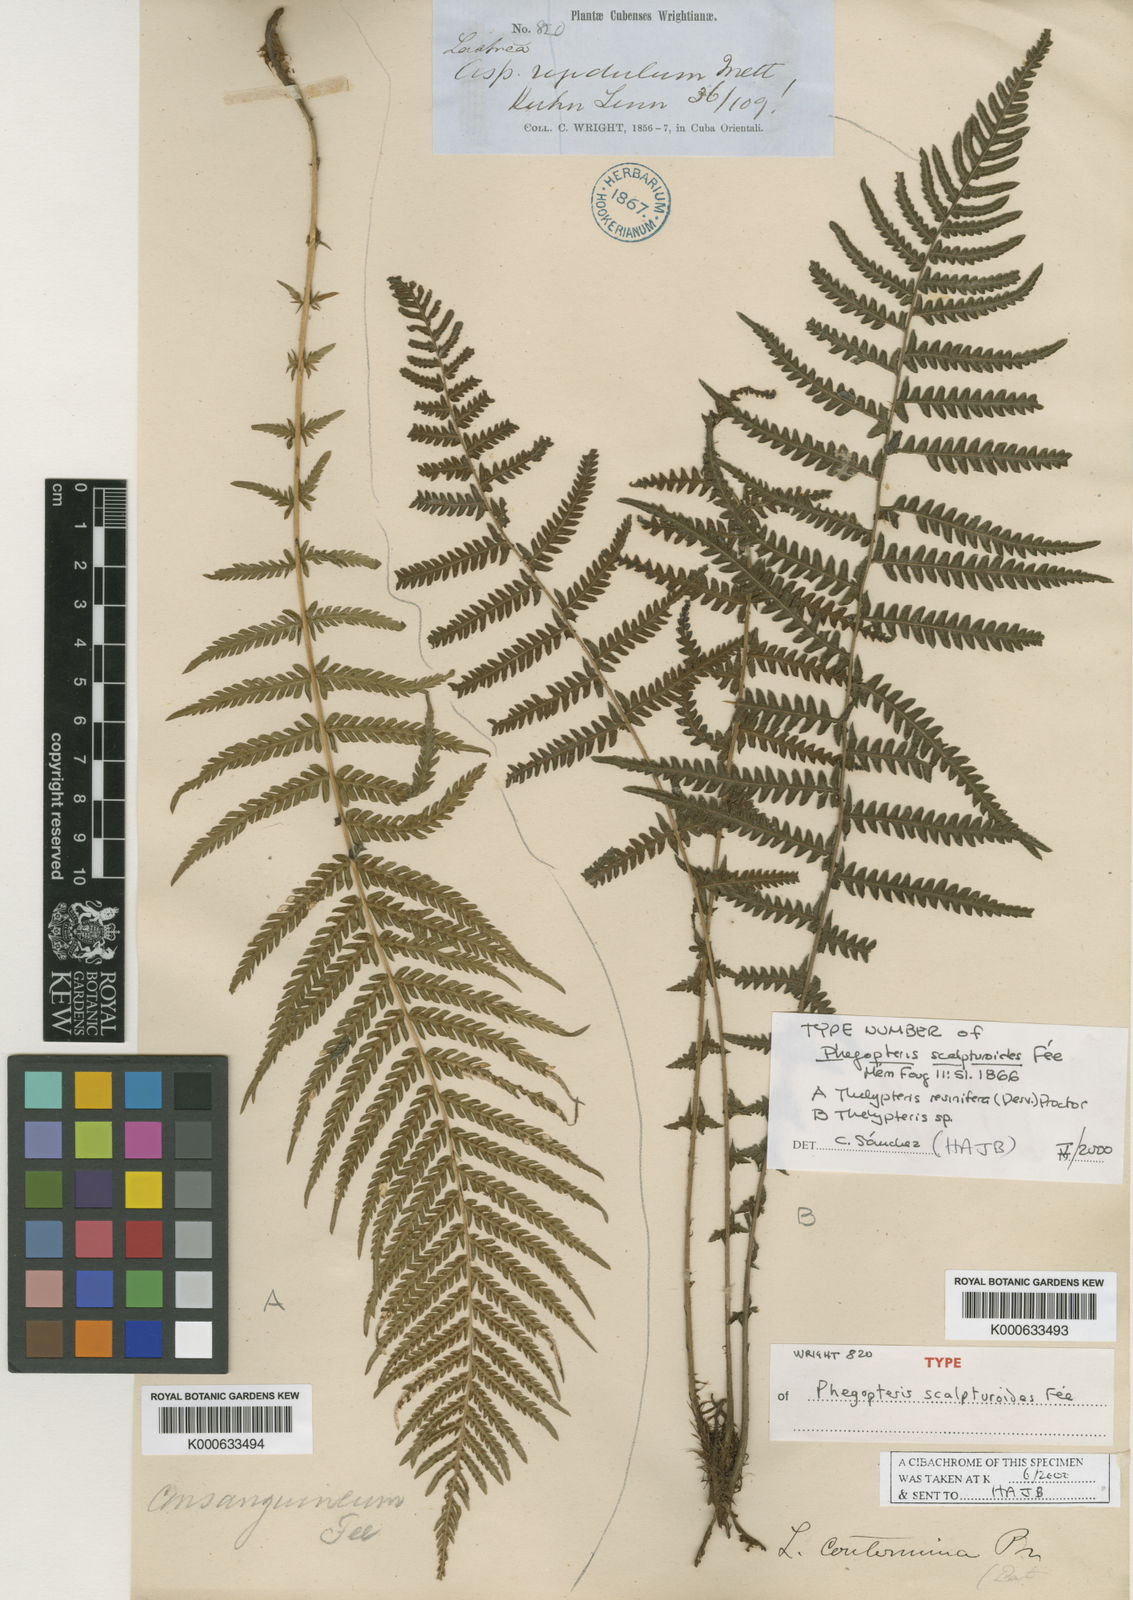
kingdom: Plantae
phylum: Tracheophyta
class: Polypodiopsida
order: Polypodiales
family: Thelypteridaceae
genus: Amauropelta
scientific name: Amauropelta
